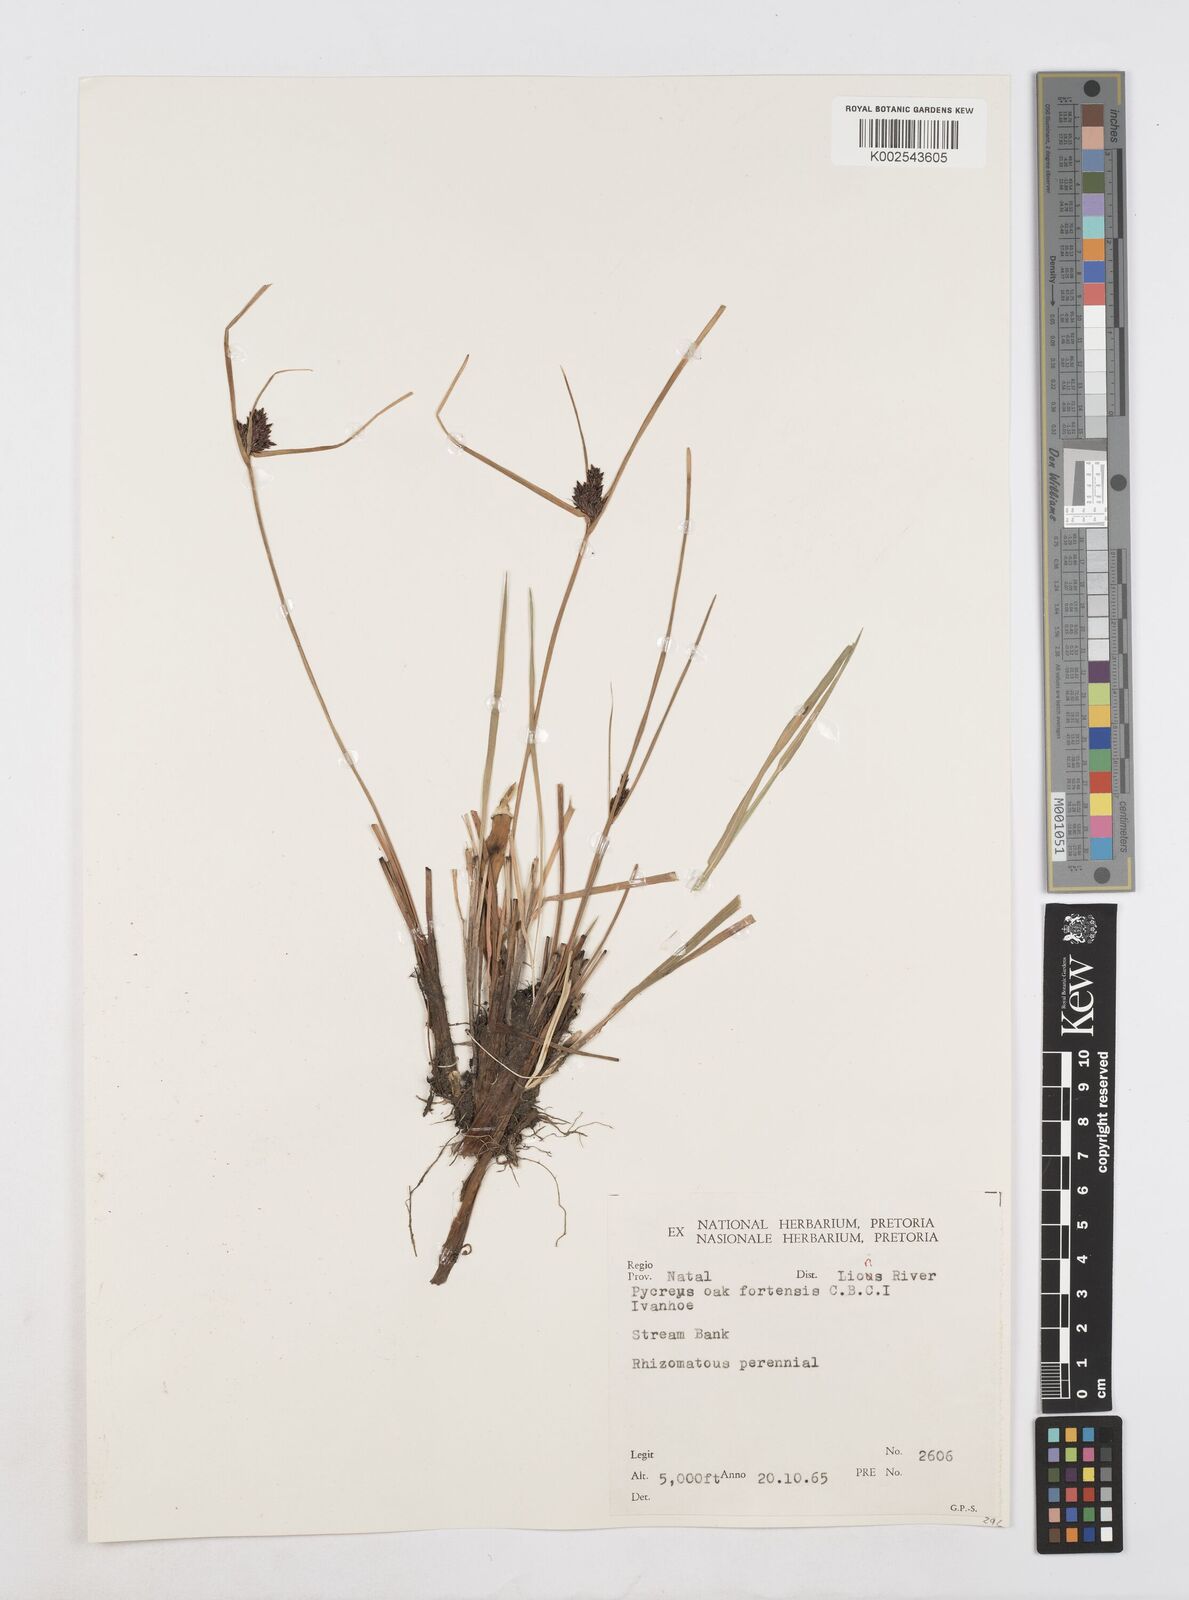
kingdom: Plantae
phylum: Tracheophyta
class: Liliopsida
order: Poales
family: Cyperaceae
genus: Cyperus
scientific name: Cyperus oakfortensis
